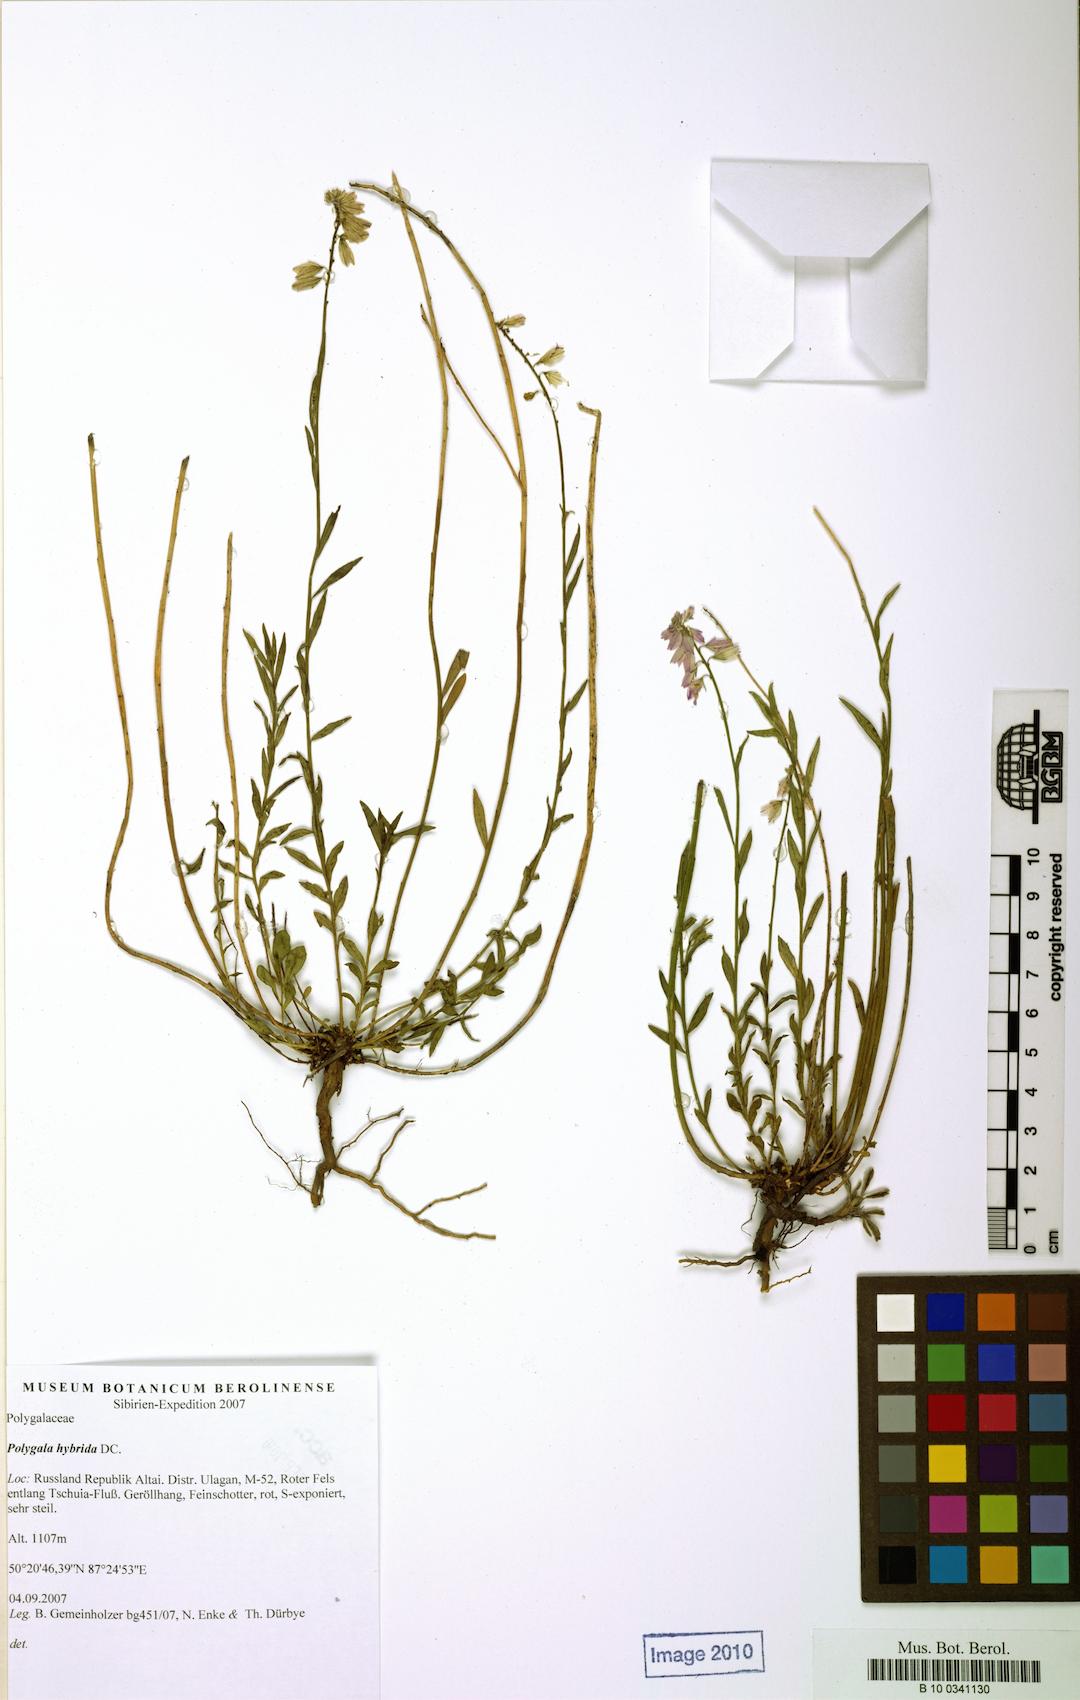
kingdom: Plantae
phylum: Tracheophyta
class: Magnoliopsida
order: Fabales
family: Polygalaceae
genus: Polygala
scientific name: Polygala comosa
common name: Tufted milkwort
